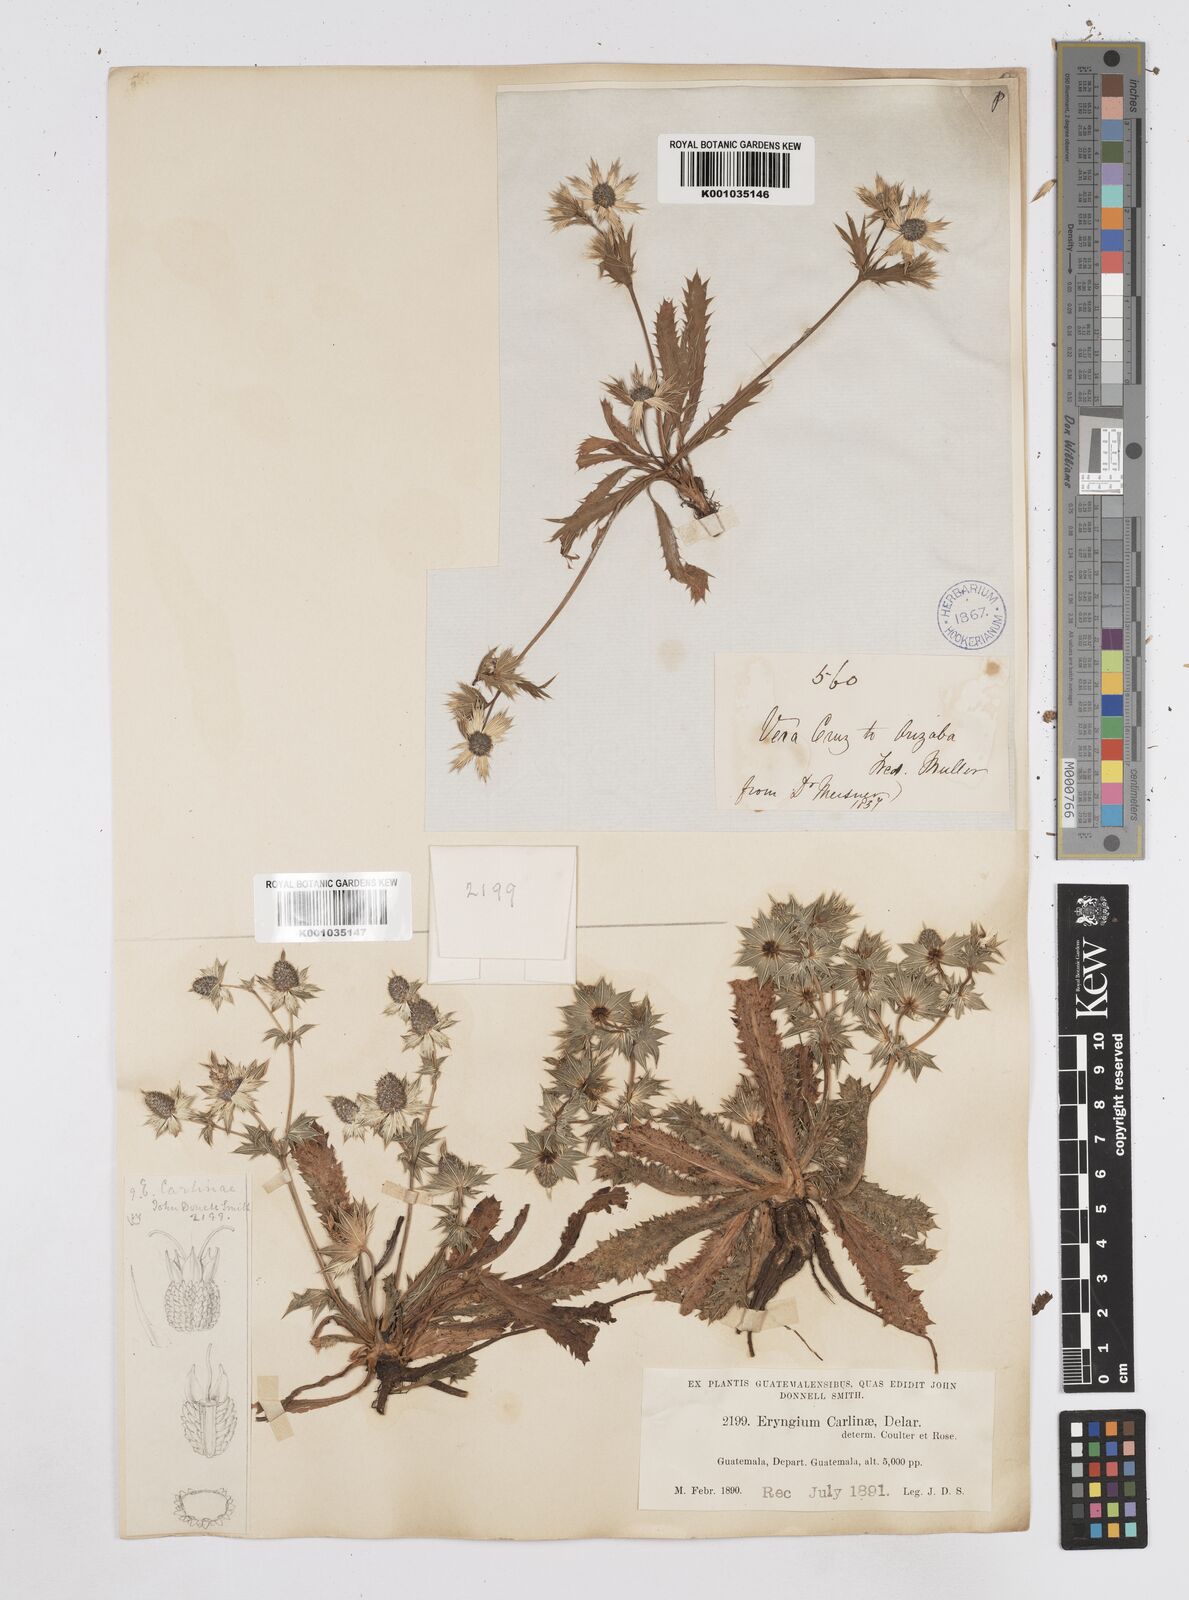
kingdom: Plantae
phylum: Tracheophyta
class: Magnoliopsida
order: Apiales
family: Apiaceae
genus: Eryngium
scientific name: Eryngium carlinae
